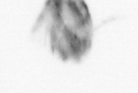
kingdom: Animalia
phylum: Arthropoda
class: Copepoda
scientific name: Copepoda
